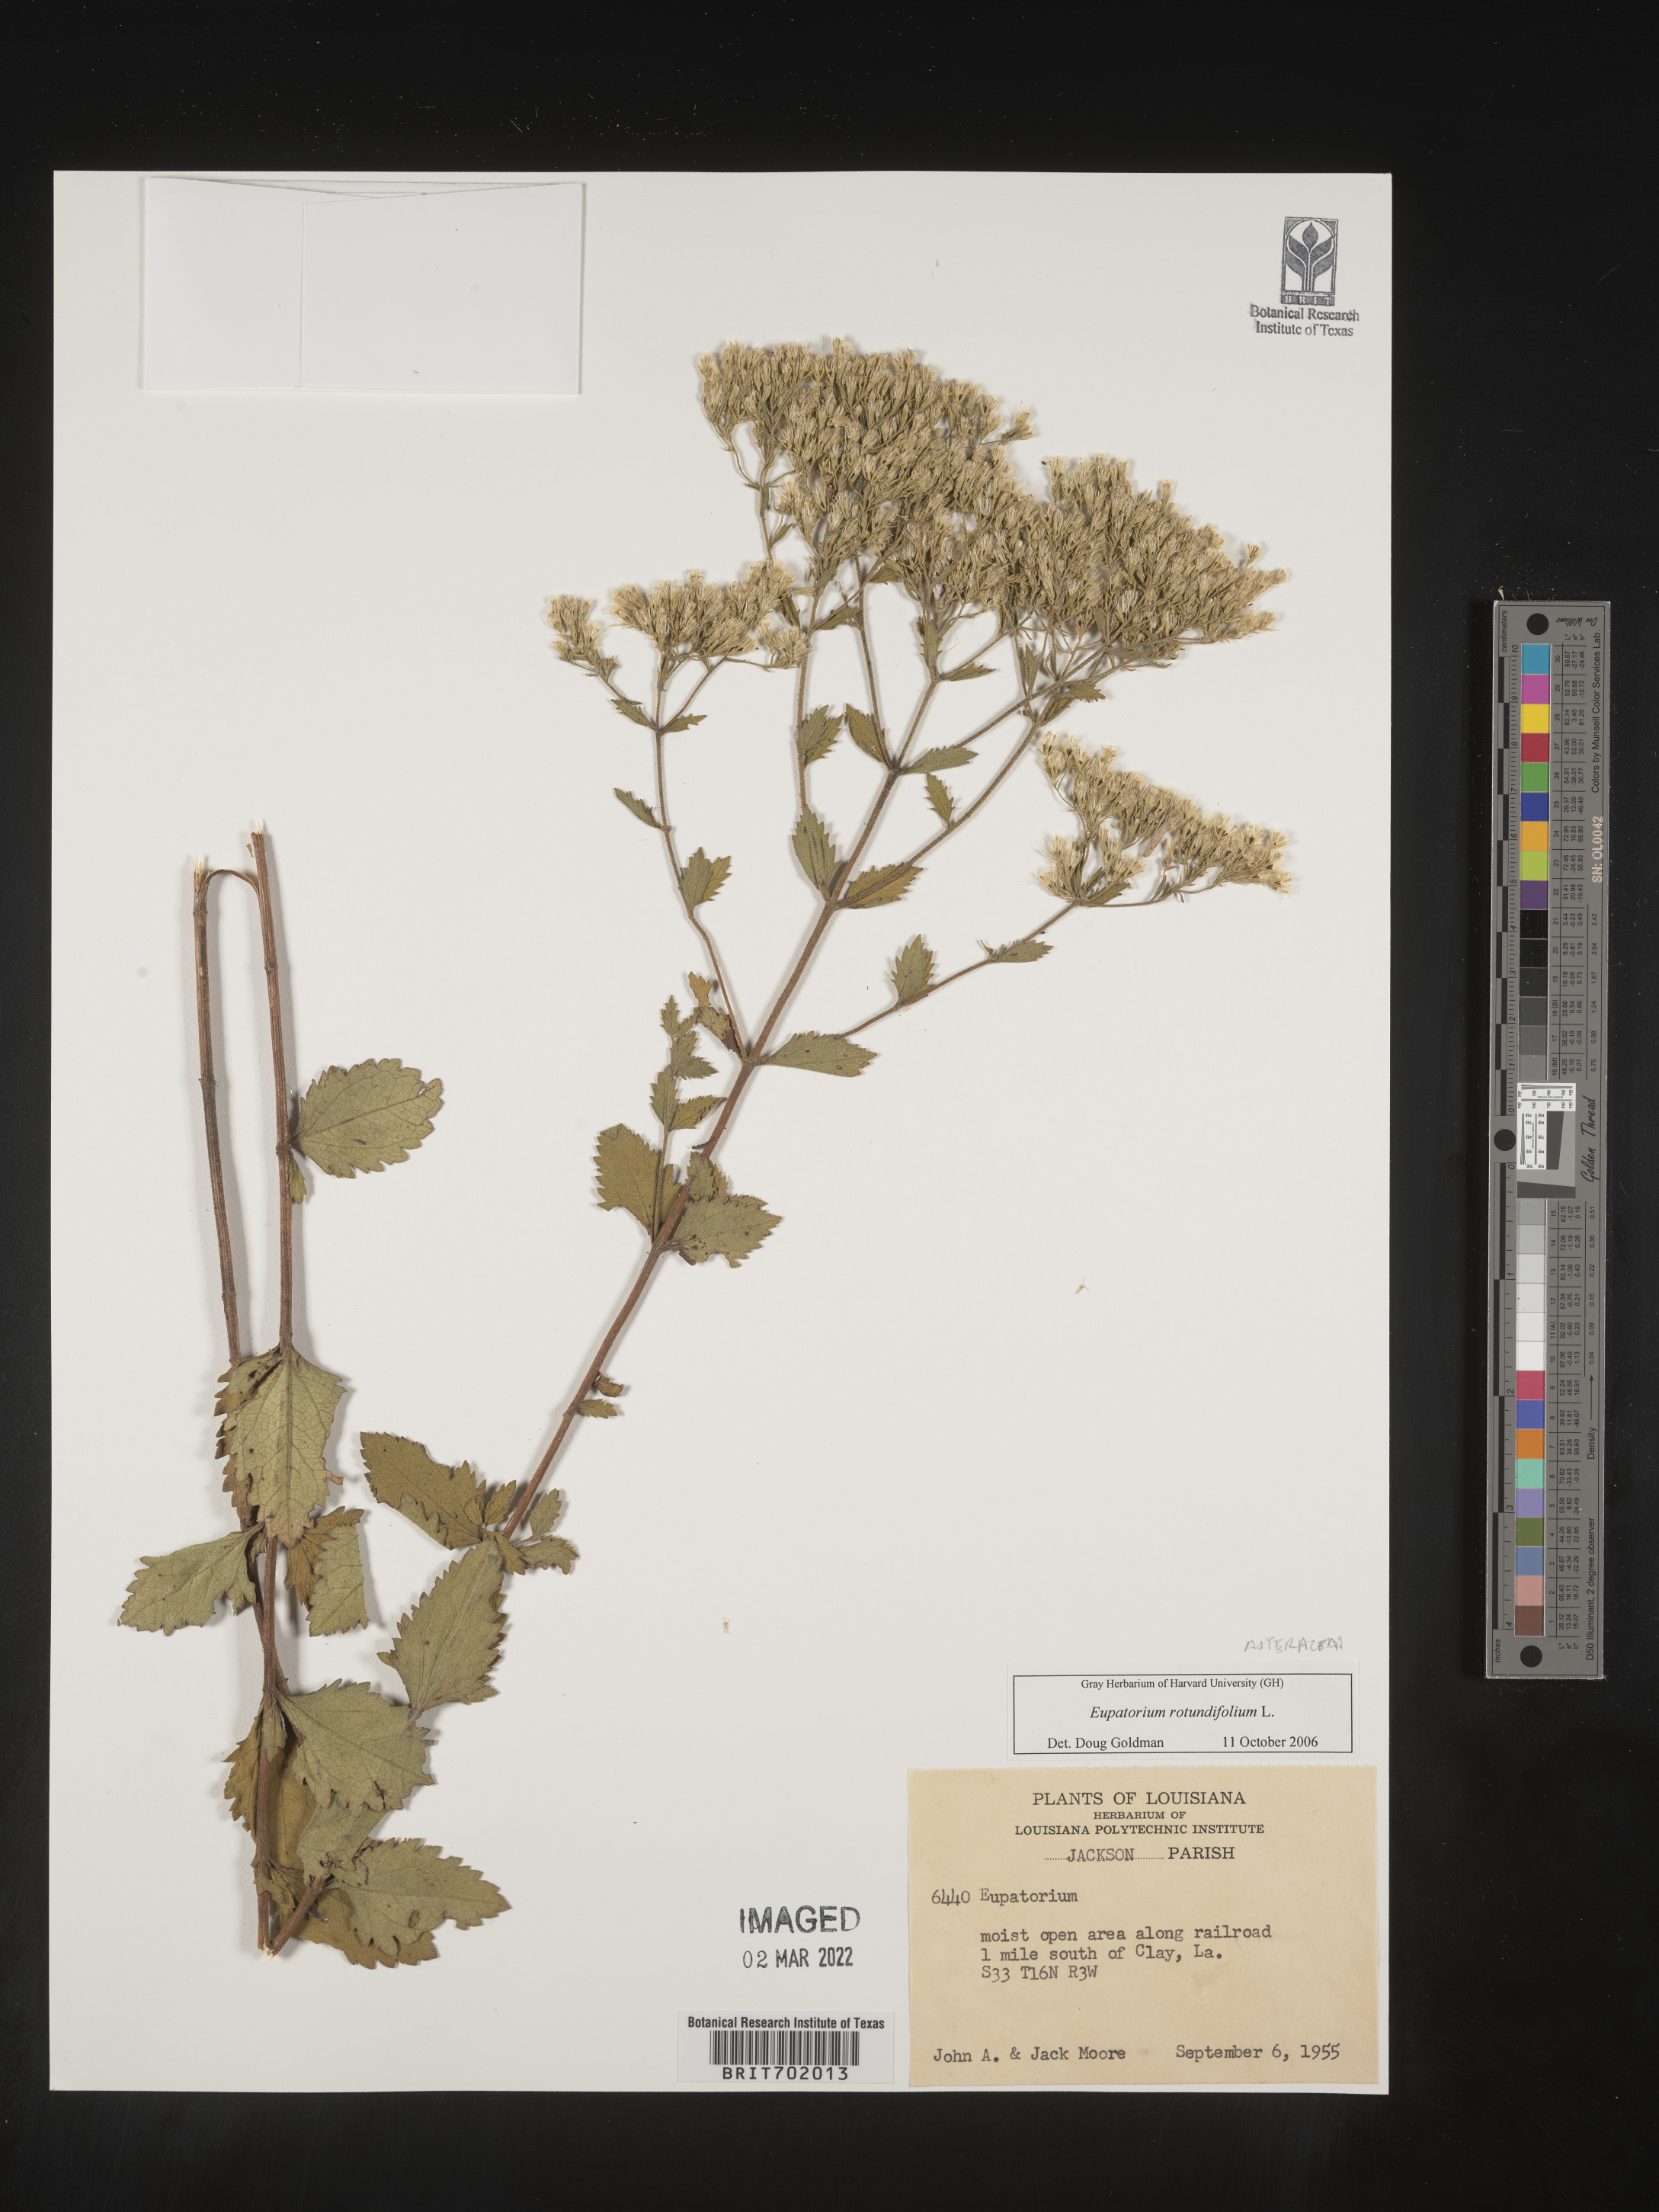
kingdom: Plantae
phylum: Tracheophyta
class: Magnoliopsida
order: Asterales
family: Asteraceae
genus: Eupatorium
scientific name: Eupatorium rotundifolium
